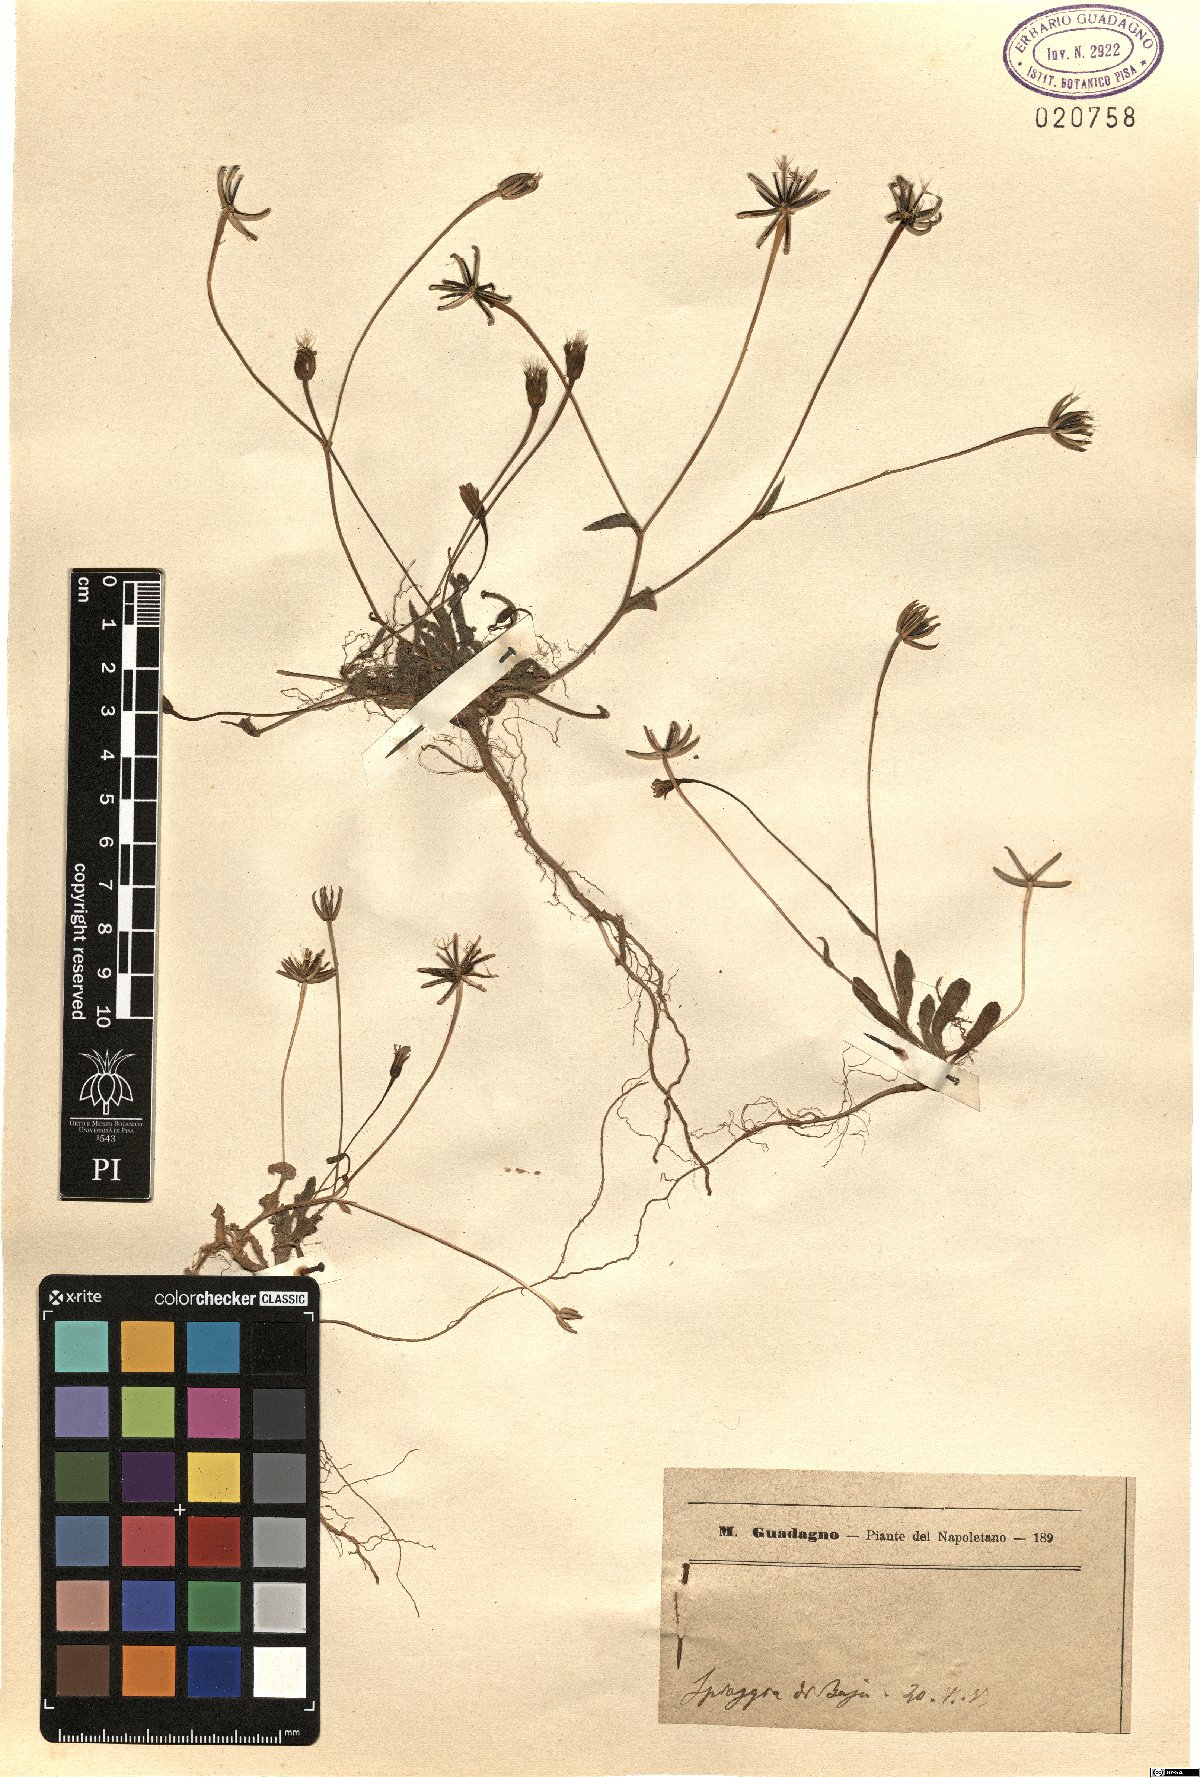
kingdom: Plantae
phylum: Tracheophyta
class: Magnoliopsida
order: Asterales
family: Asteraceae
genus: Rhagadiolus
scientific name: Rhagadiolus
